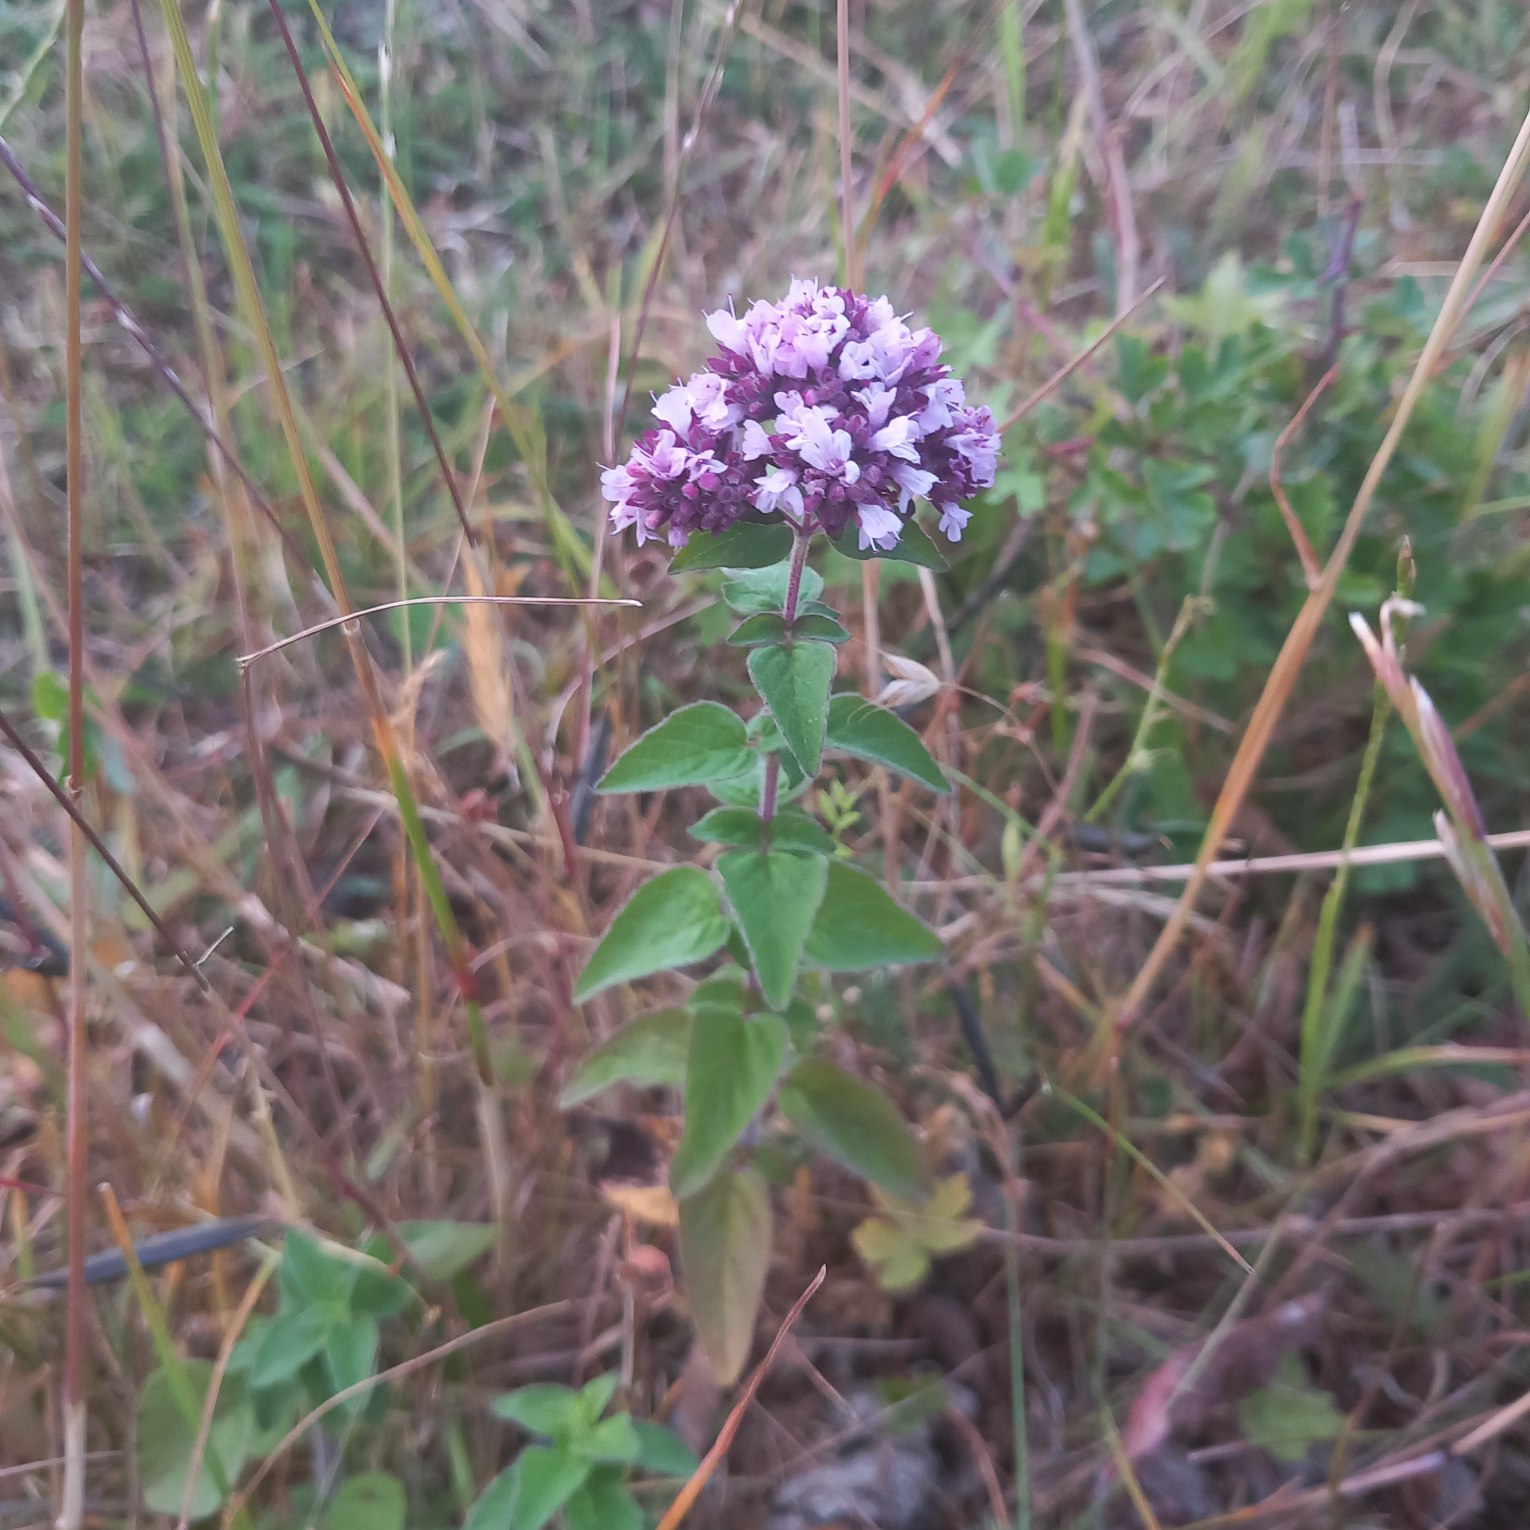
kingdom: Plantae
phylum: Tracheophyta
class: Magnoliopsida
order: Lamiales
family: Lamiaceae
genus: Origanum
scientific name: Origanum vulgare
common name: Merian
